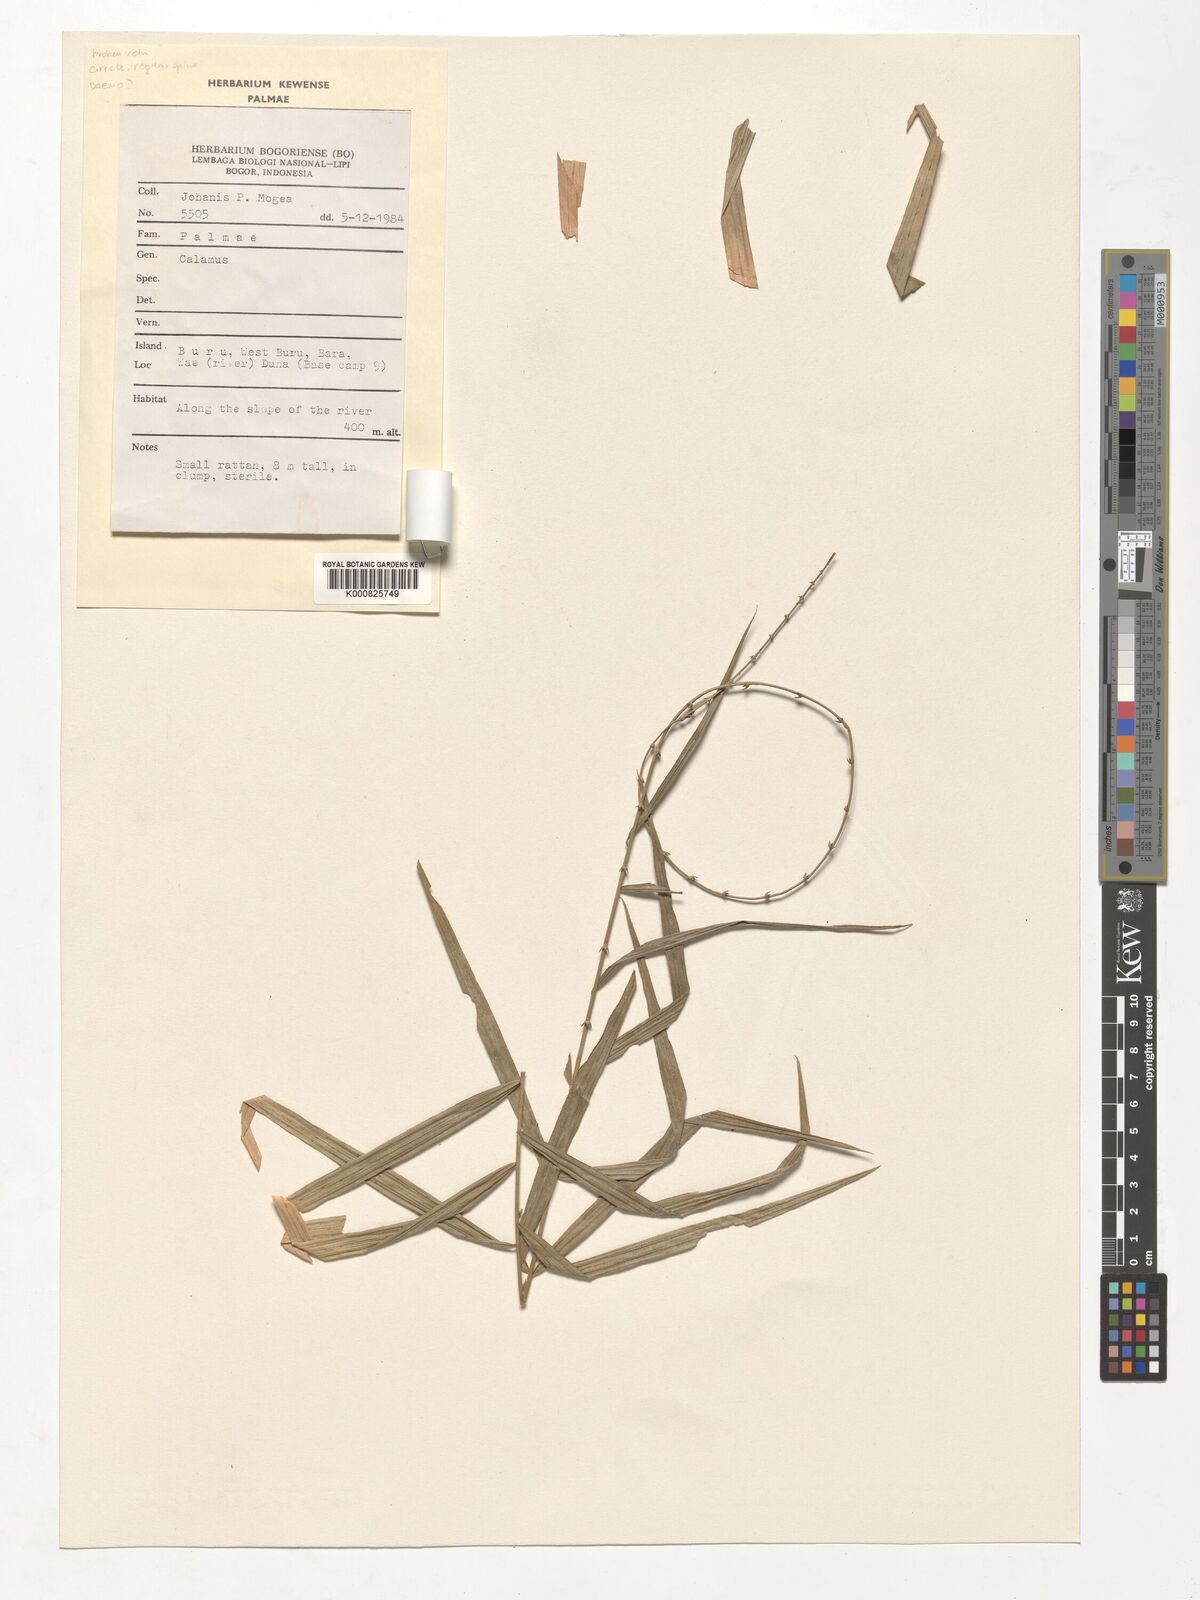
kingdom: Plantae
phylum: Tracheophyta
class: Liliopsida
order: Arecales
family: Arecaceae
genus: Calamus
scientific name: Calamus
